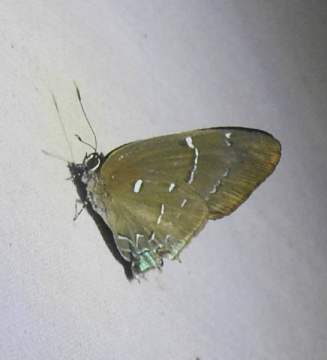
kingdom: Animalia
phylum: Arthropoda
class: Insecta
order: Lepidoptera
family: Lycaenidae
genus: Janthecla
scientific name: Janthecla janthina
